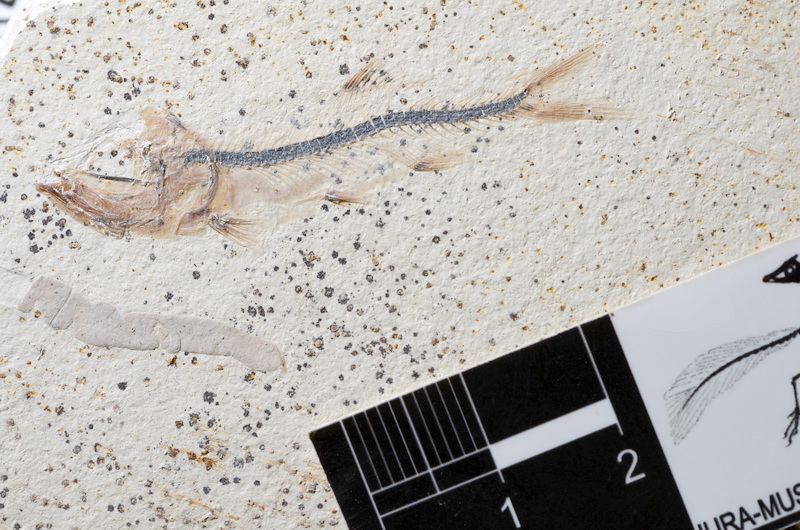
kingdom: Animalia
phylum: Chordata
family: Ascalaboidae
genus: Ebertichthys
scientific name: Ebertichthys ettlingensis
